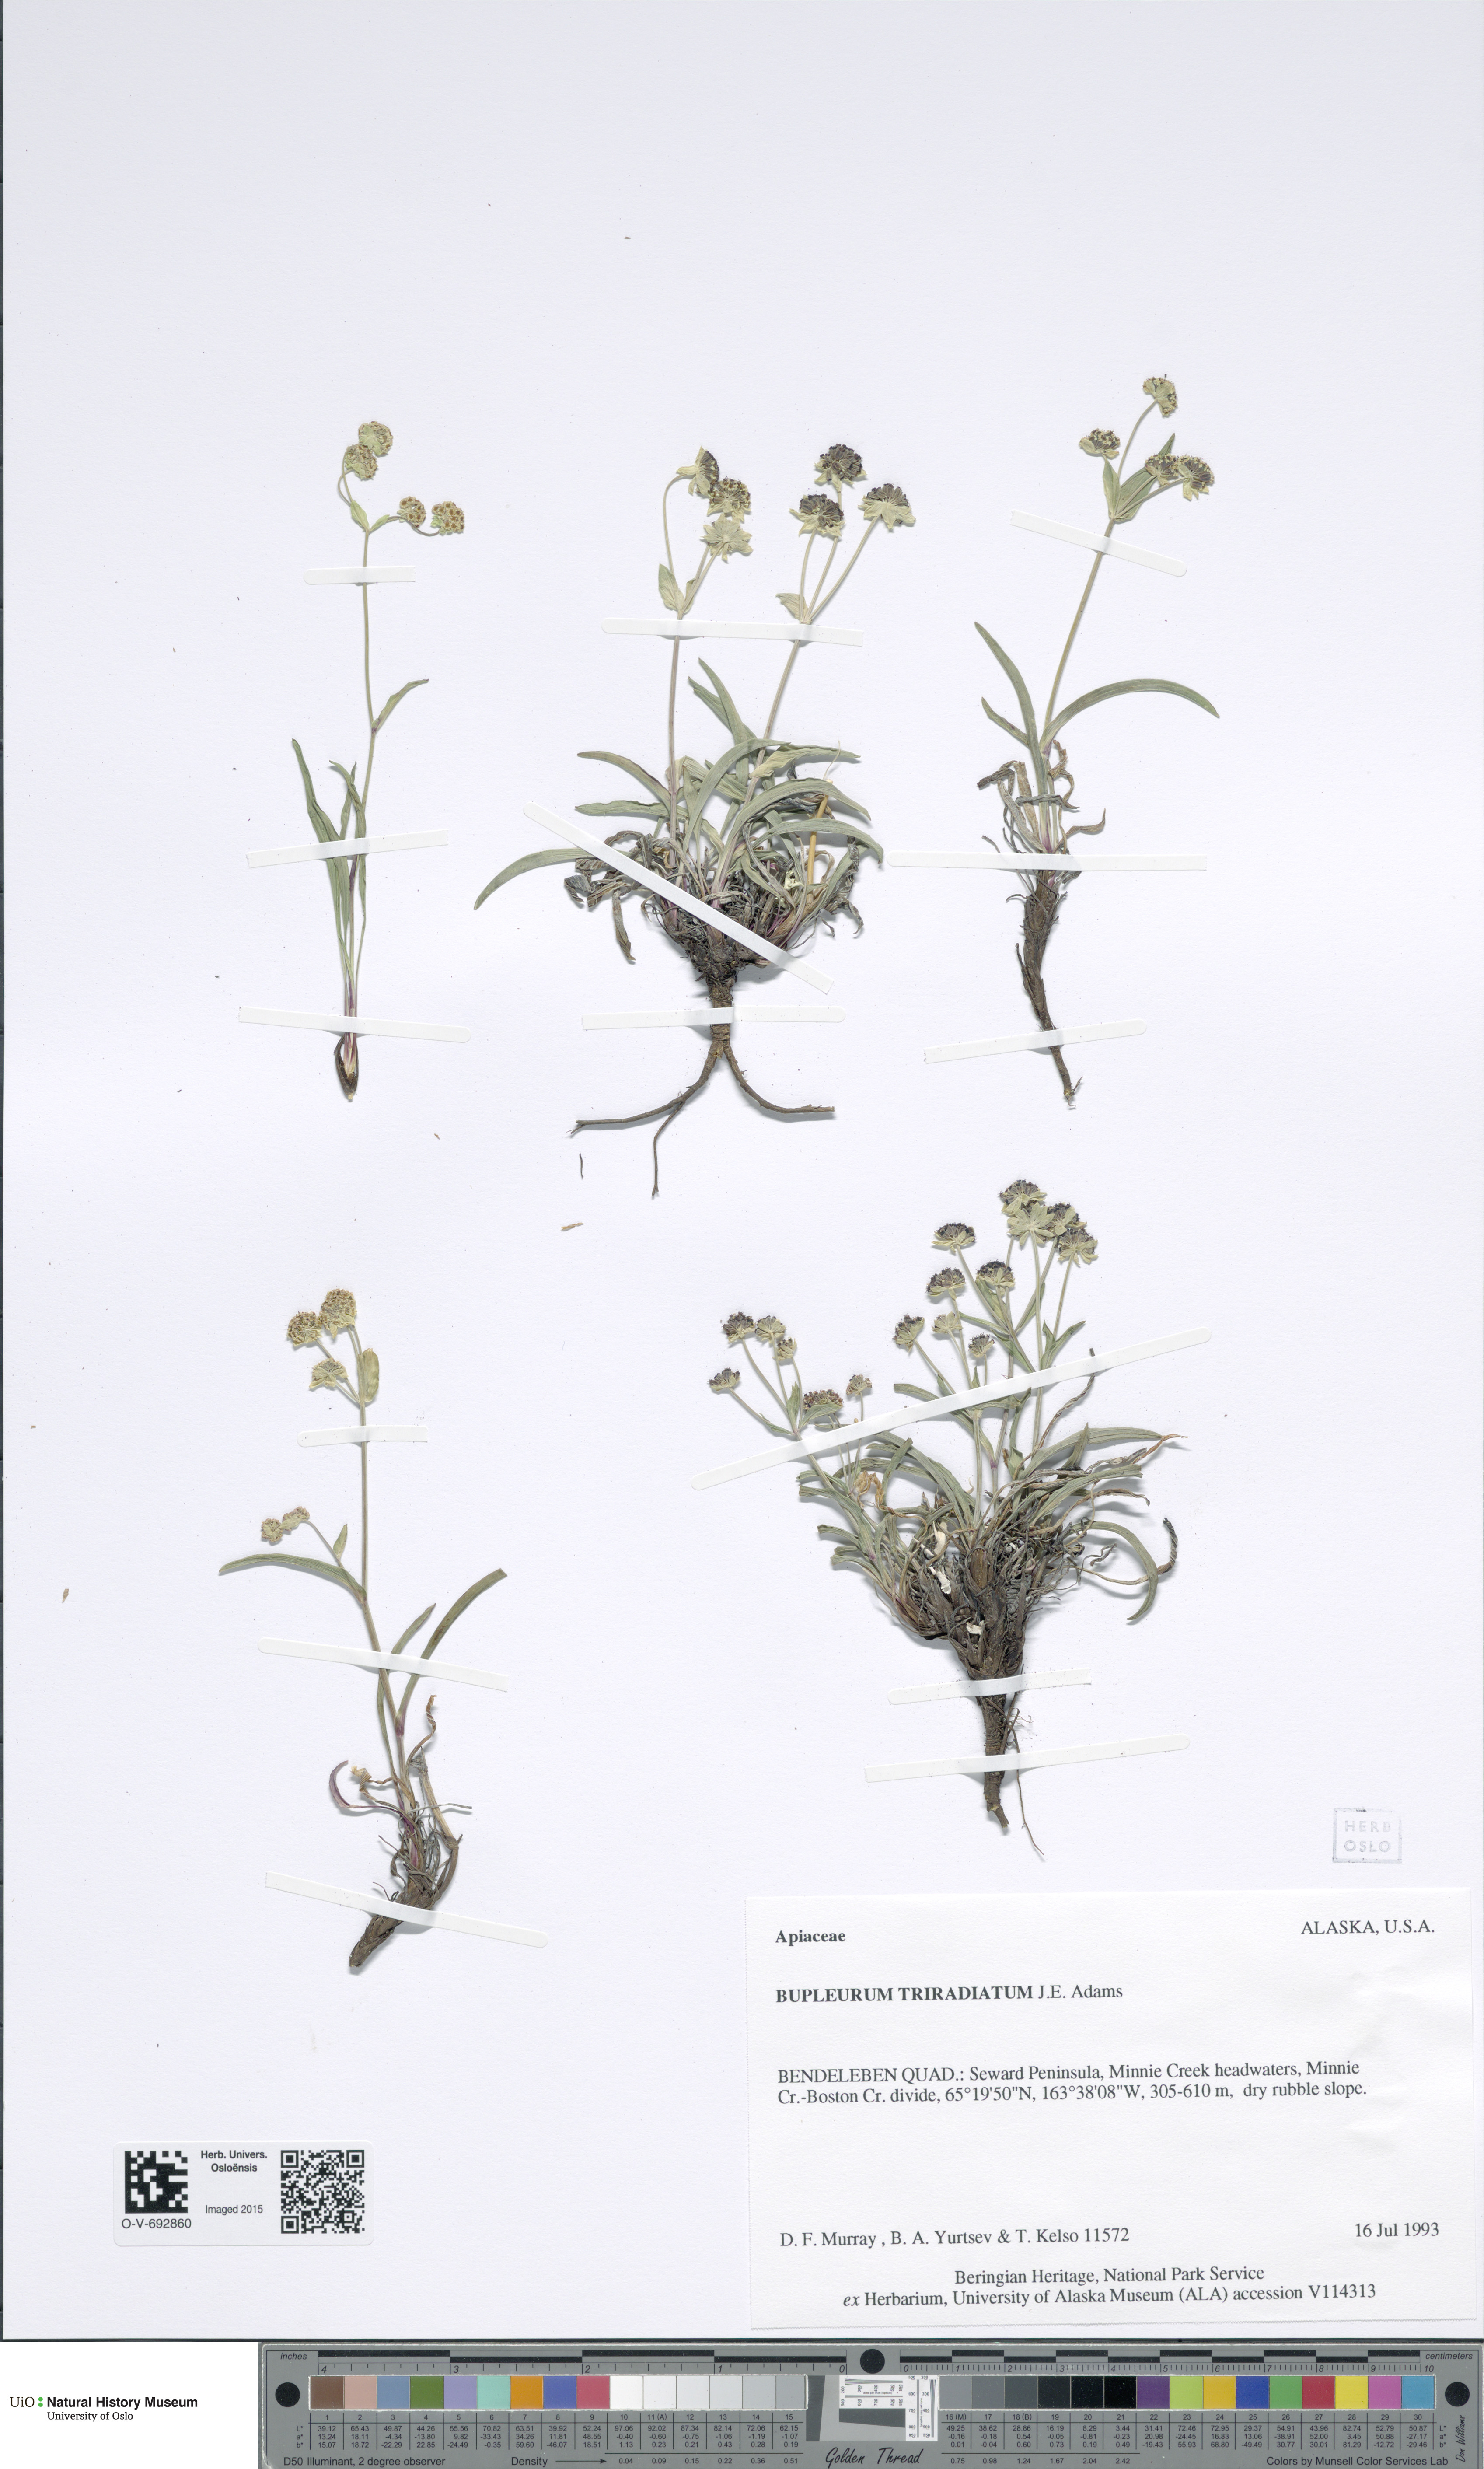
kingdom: Plantae
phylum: Tracheophyta
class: Magnoliopsida
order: Apiales
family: Apiaceae
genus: Bupleurum
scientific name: Bupleurum triradiatum
